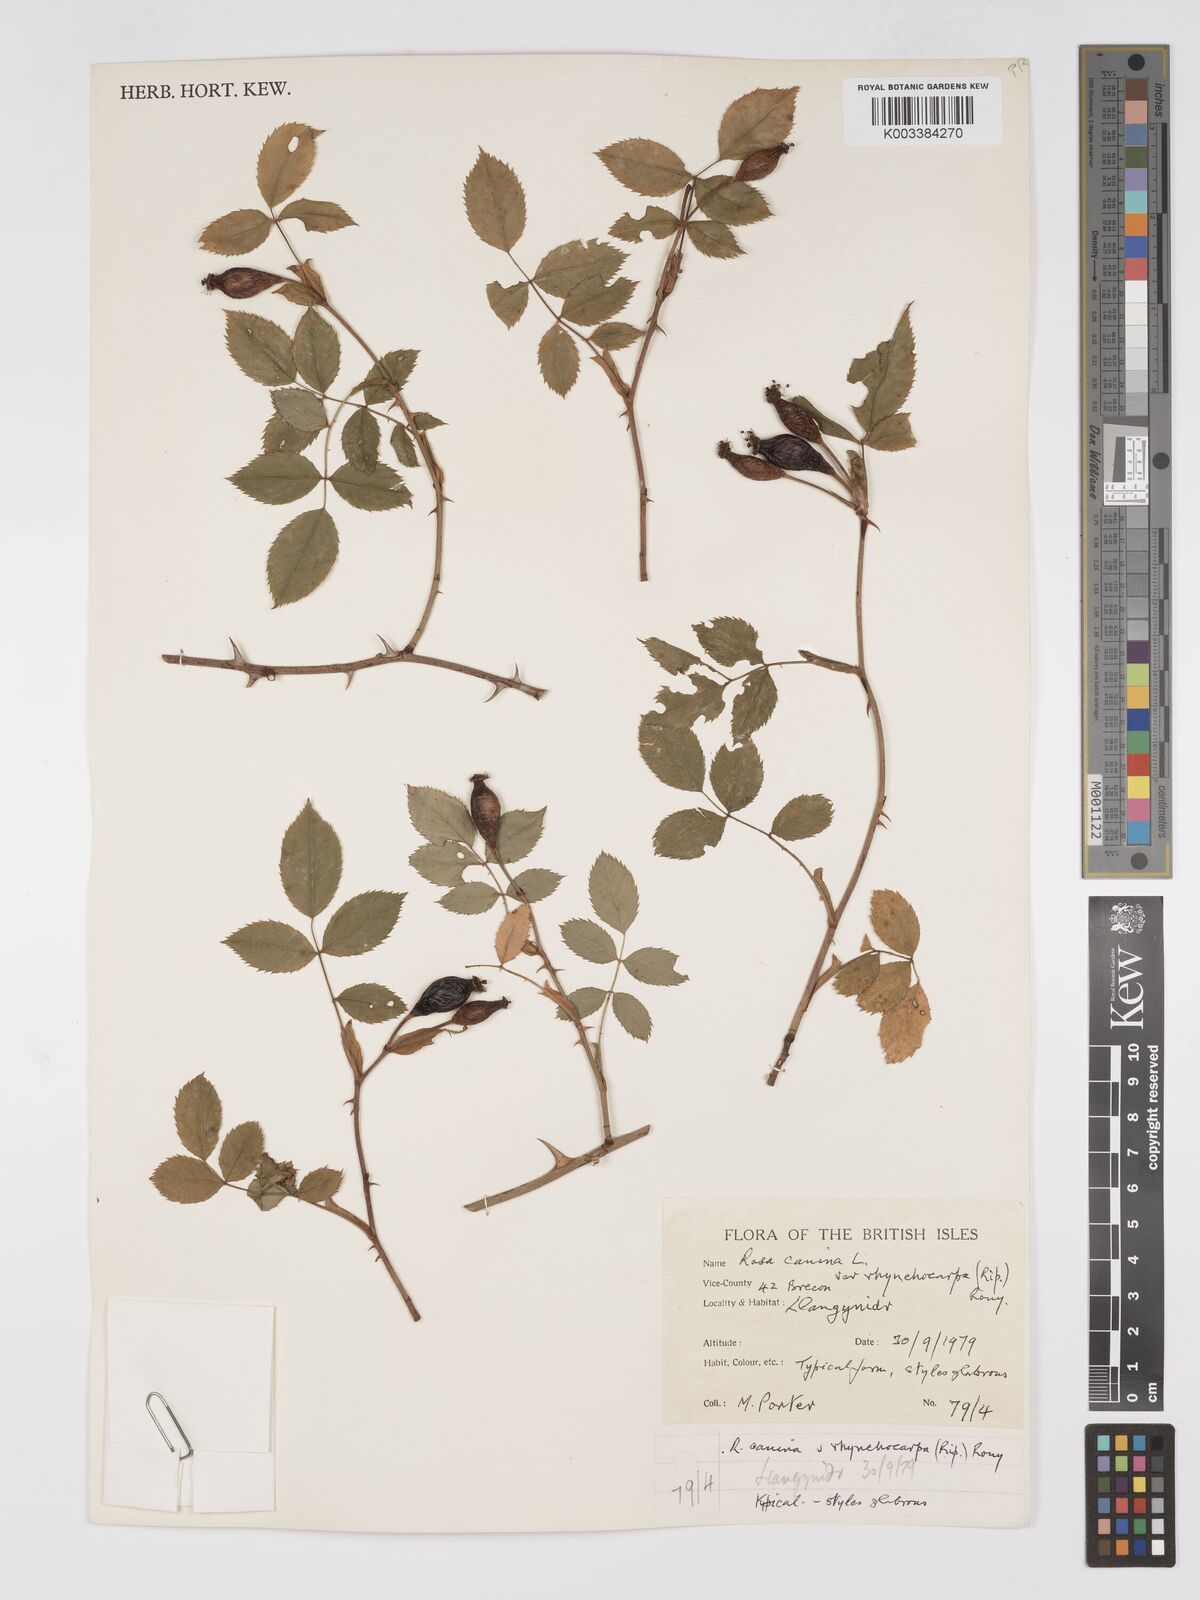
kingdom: Plantae
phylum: Tracheophyta
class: Magnoliopsida
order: Rosales
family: Rosaceae
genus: Rosa
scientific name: Rosa canina
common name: Dog rose
